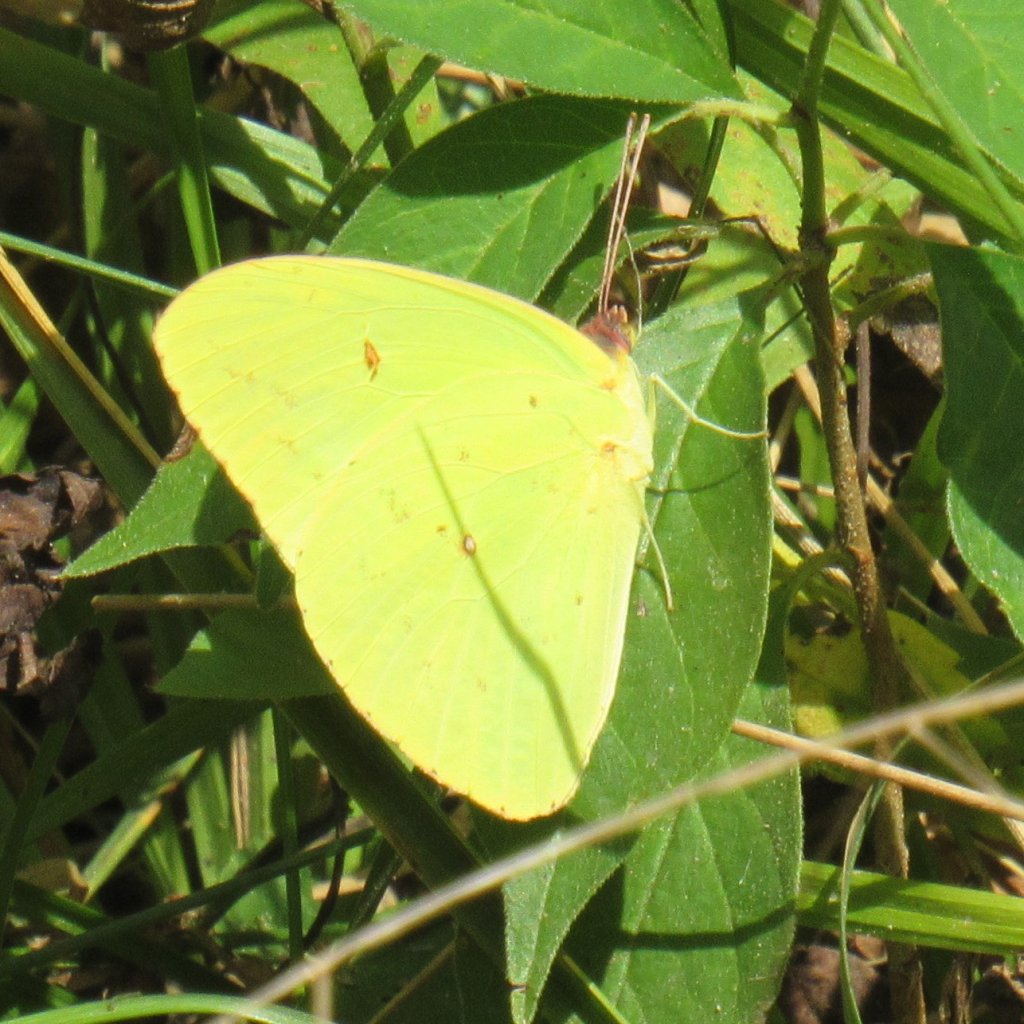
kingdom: Animalia
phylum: Arthropoda
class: Insecta
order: Lepidoptera
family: Pieridae
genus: Phoebis
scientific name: Phoebis sennae
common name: Cloudless Sulphur
